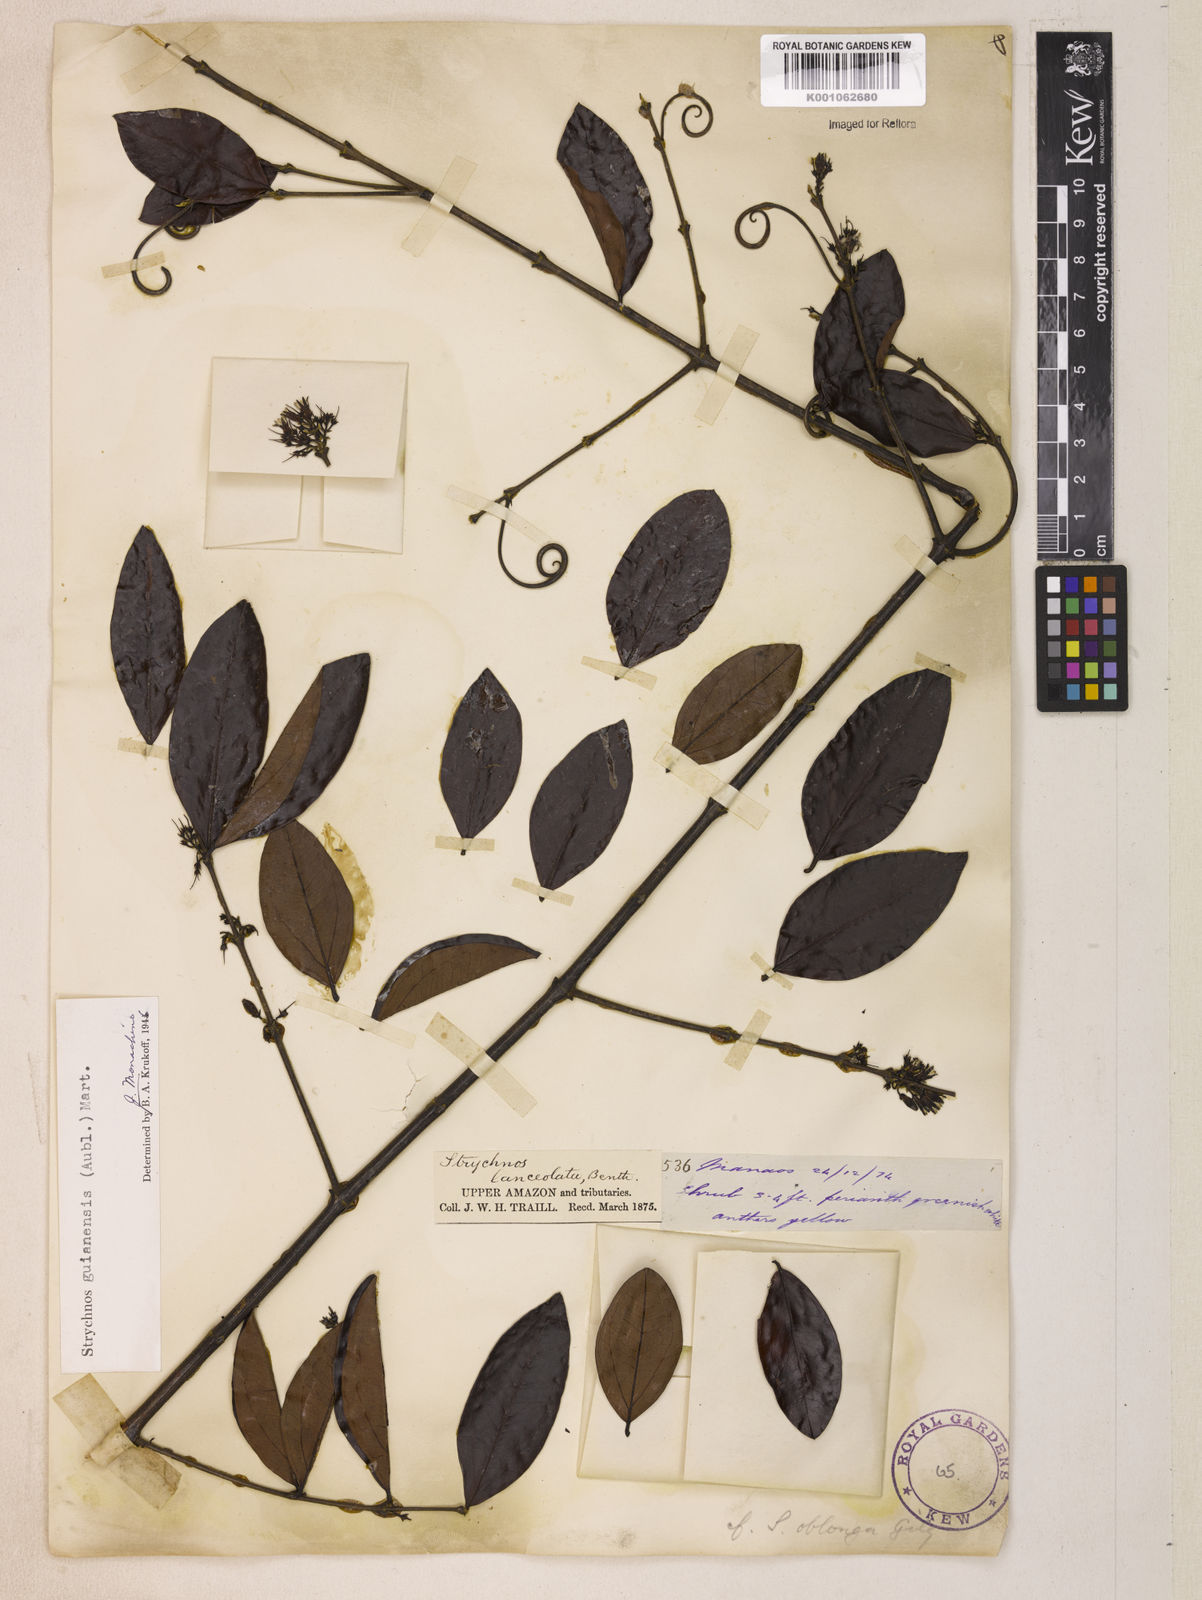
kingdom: Plantae
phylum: Tracheophyta
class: Magnoliopsida
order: Gentianales
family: Loganiaceae
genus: Strychnos
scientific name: Strychnos guianensis
